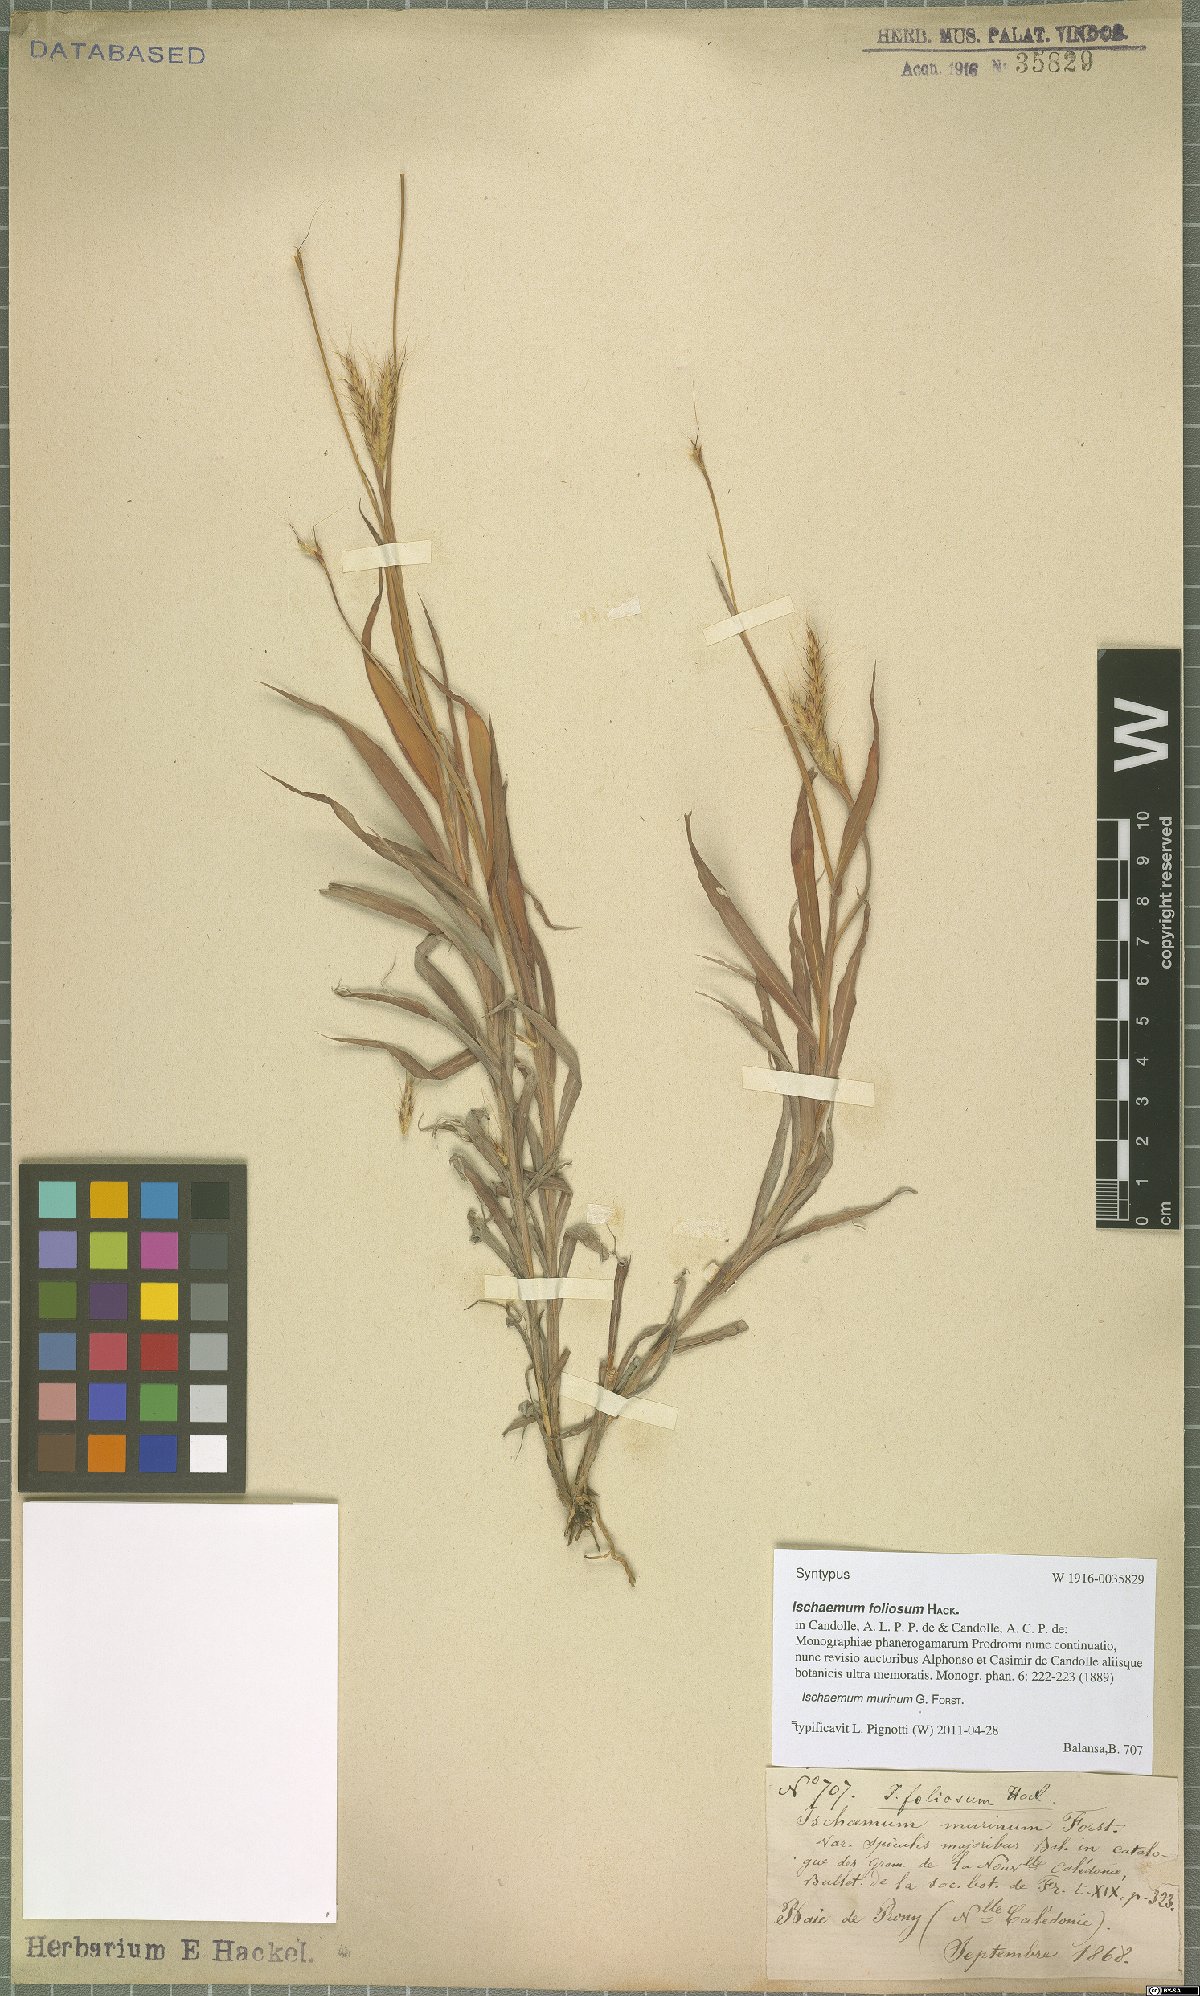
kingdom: Plantae
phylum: Tracheophyta
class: Liliopsida
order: Poales
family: Poaceae
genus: Ischaemum
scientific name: Ischaemum murinum
